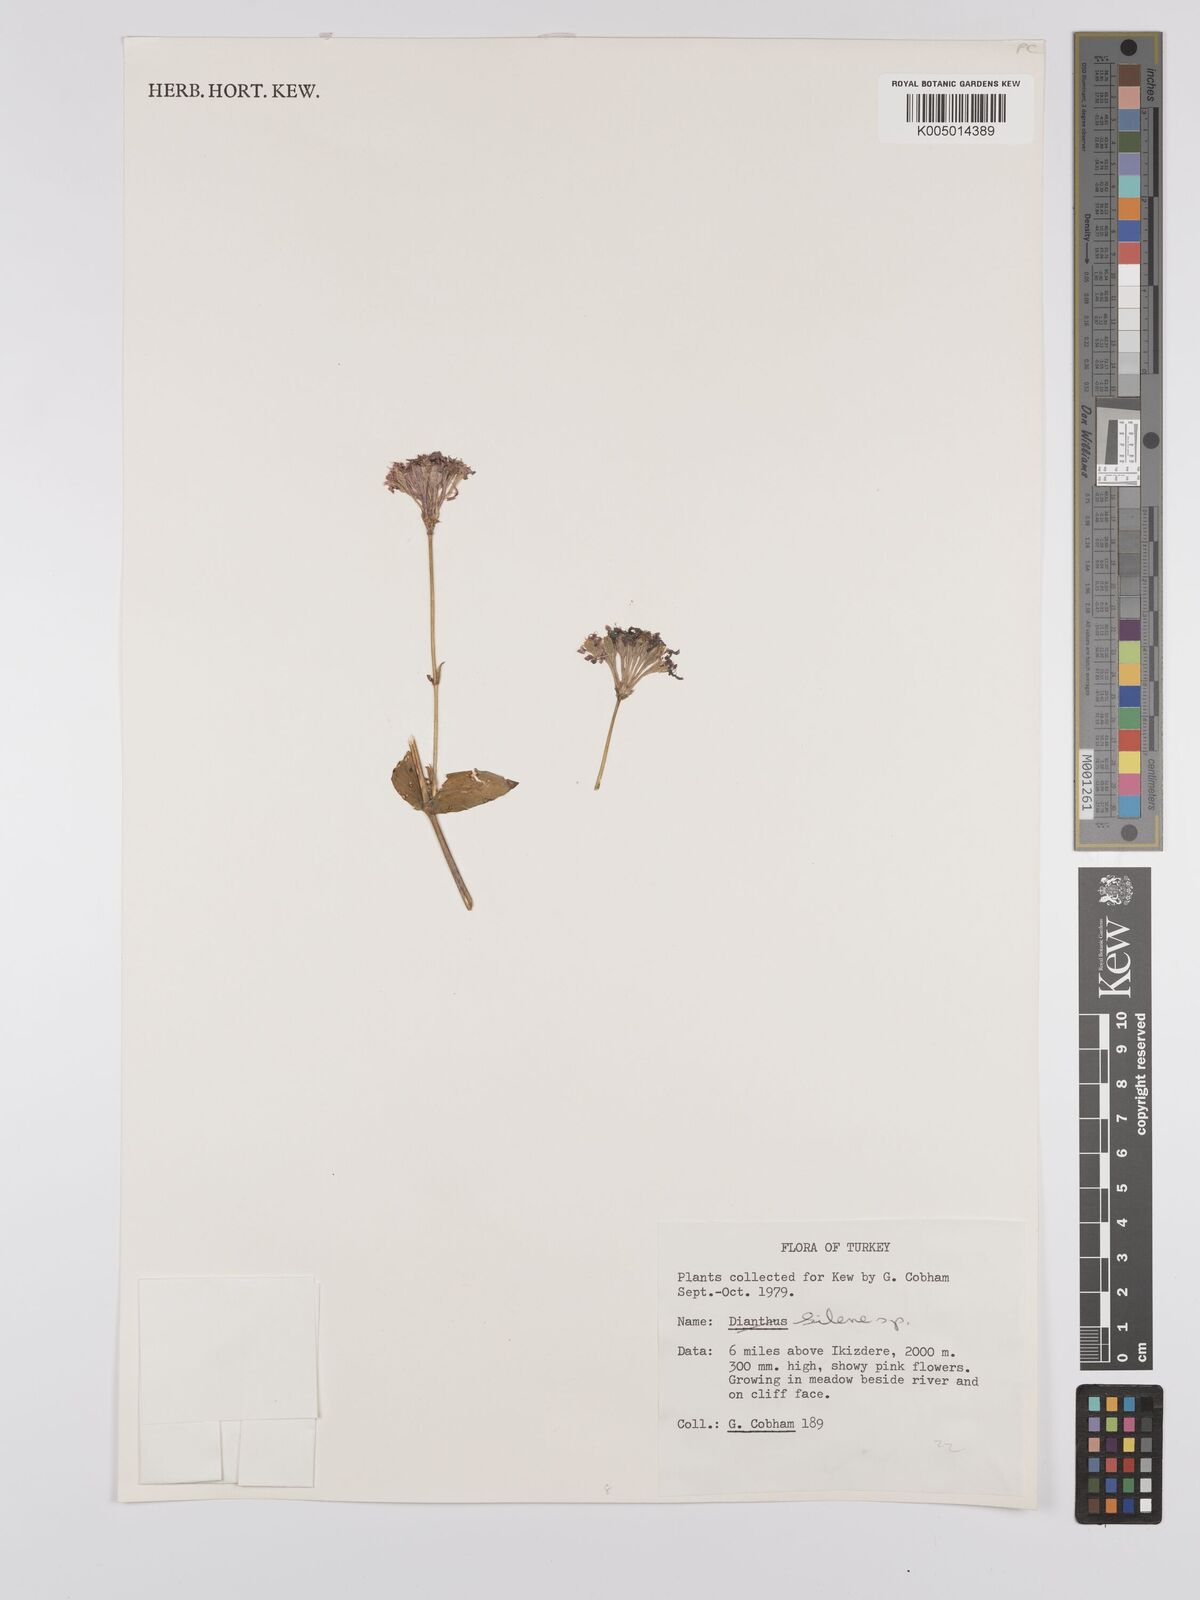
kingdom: Plantae
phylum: Tracheophyta
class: Magnoliopsida
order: Caryophyllales
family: Caryophyllaceae
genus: Silene
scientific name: Silene
